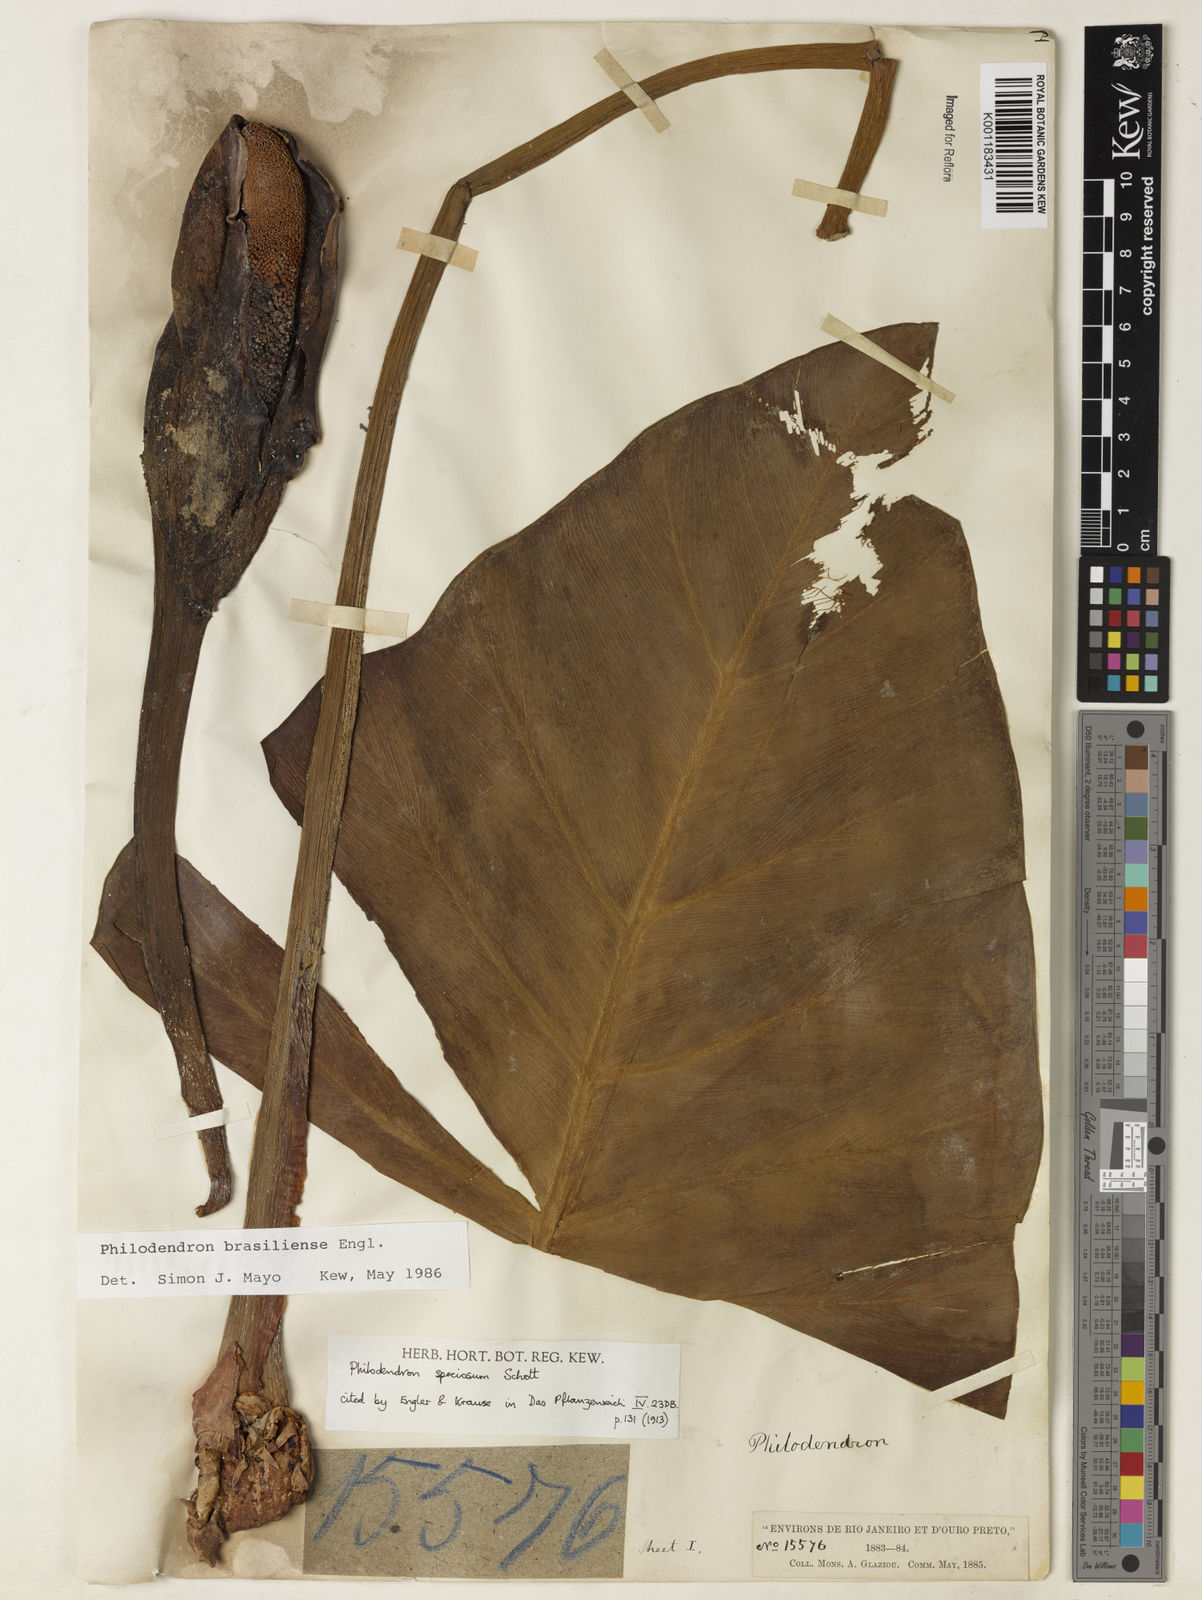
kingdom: Plantae
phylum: Tracheophyta
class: Liliopsida
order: Alismatales
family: Araceae
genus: Thaumatophyllum
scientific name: Thaumatophyllum brasiliense
